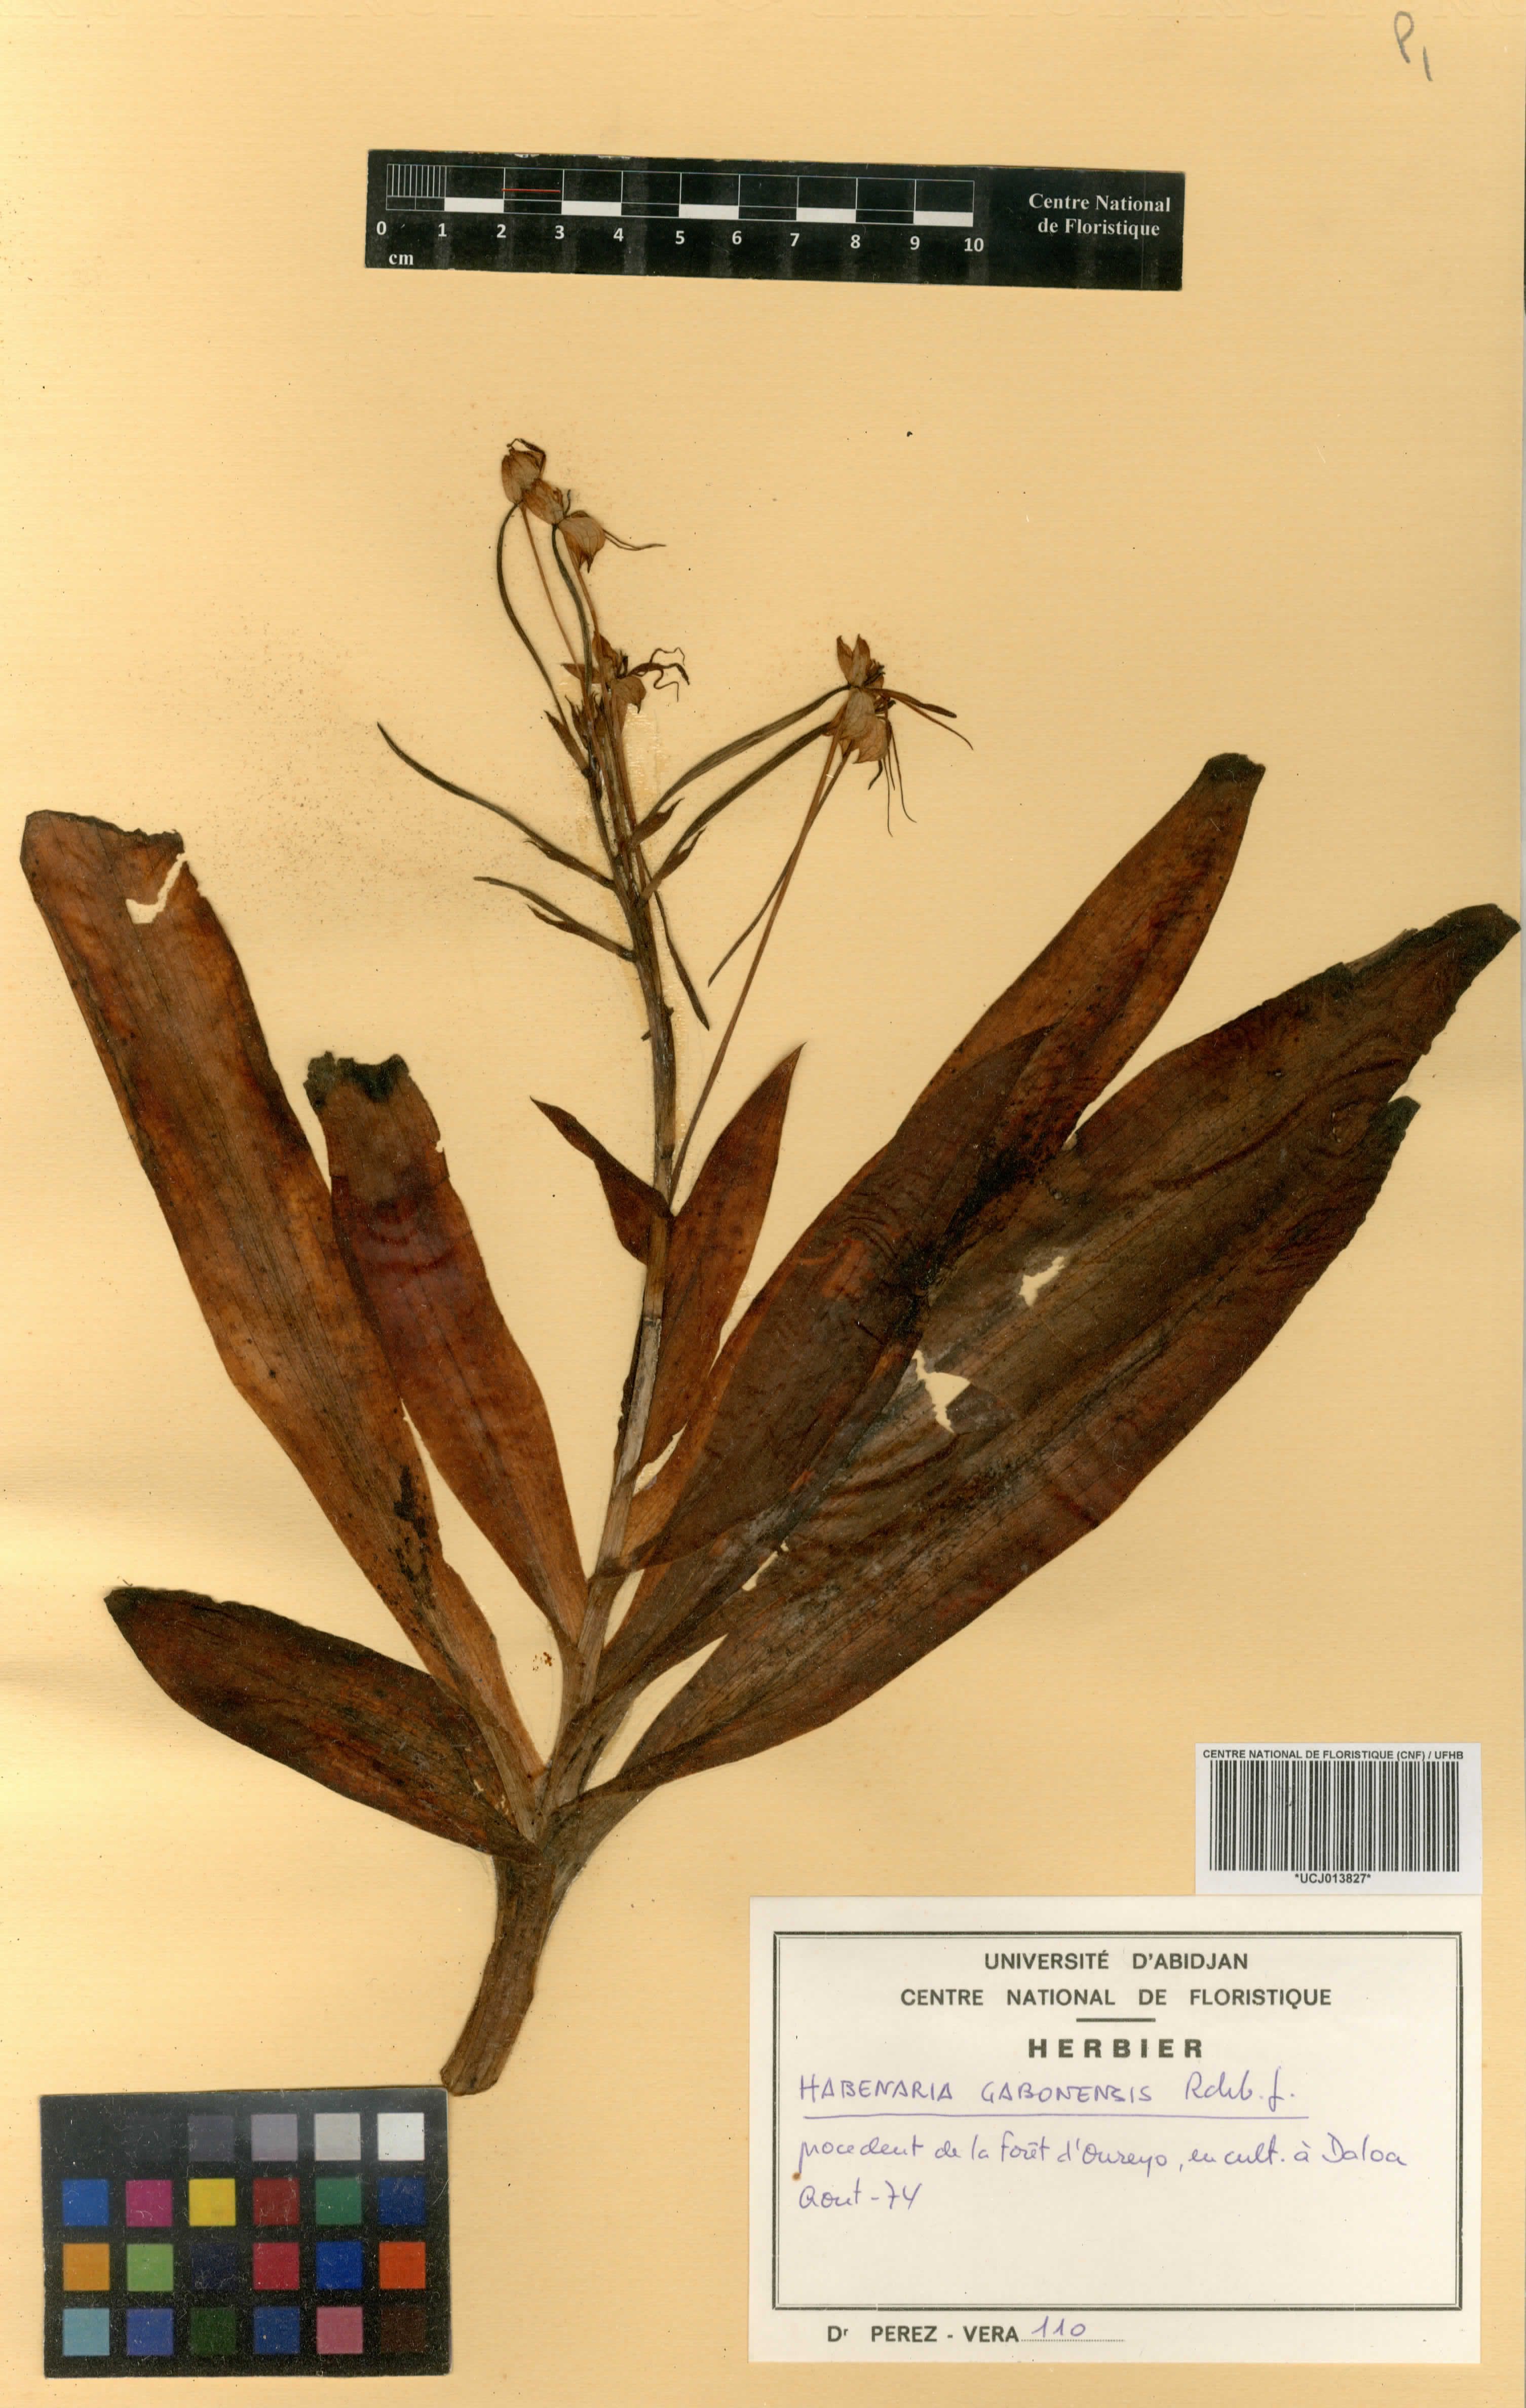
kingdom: Plantae
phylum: Tracheophyta
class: Liliopsida
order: Asparagales
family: Orchidaceae
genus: Habenaria
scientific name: Habenaria procera
